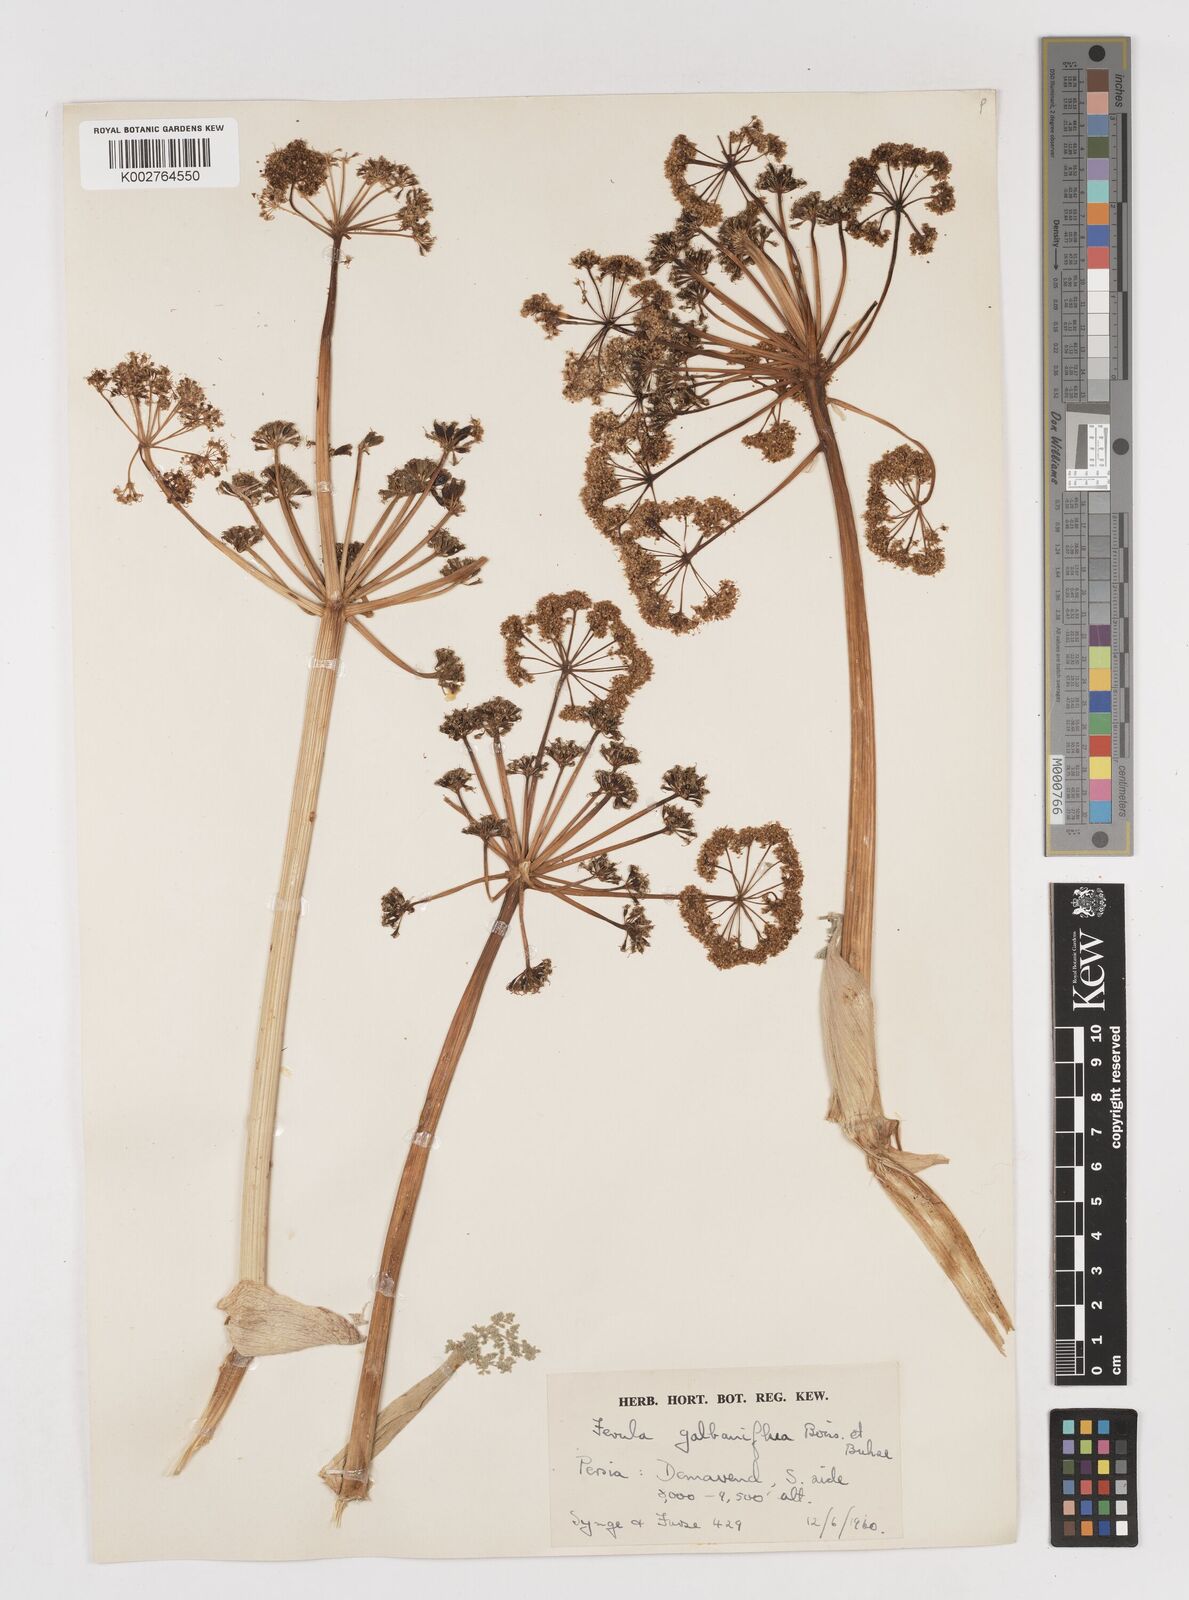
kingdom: Plantae
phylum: Tracheophyta
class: Magnoliopsida
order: Apiales
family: Apiaceae
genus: Ferula
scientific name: Ferula gummosa
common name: Galbanum
